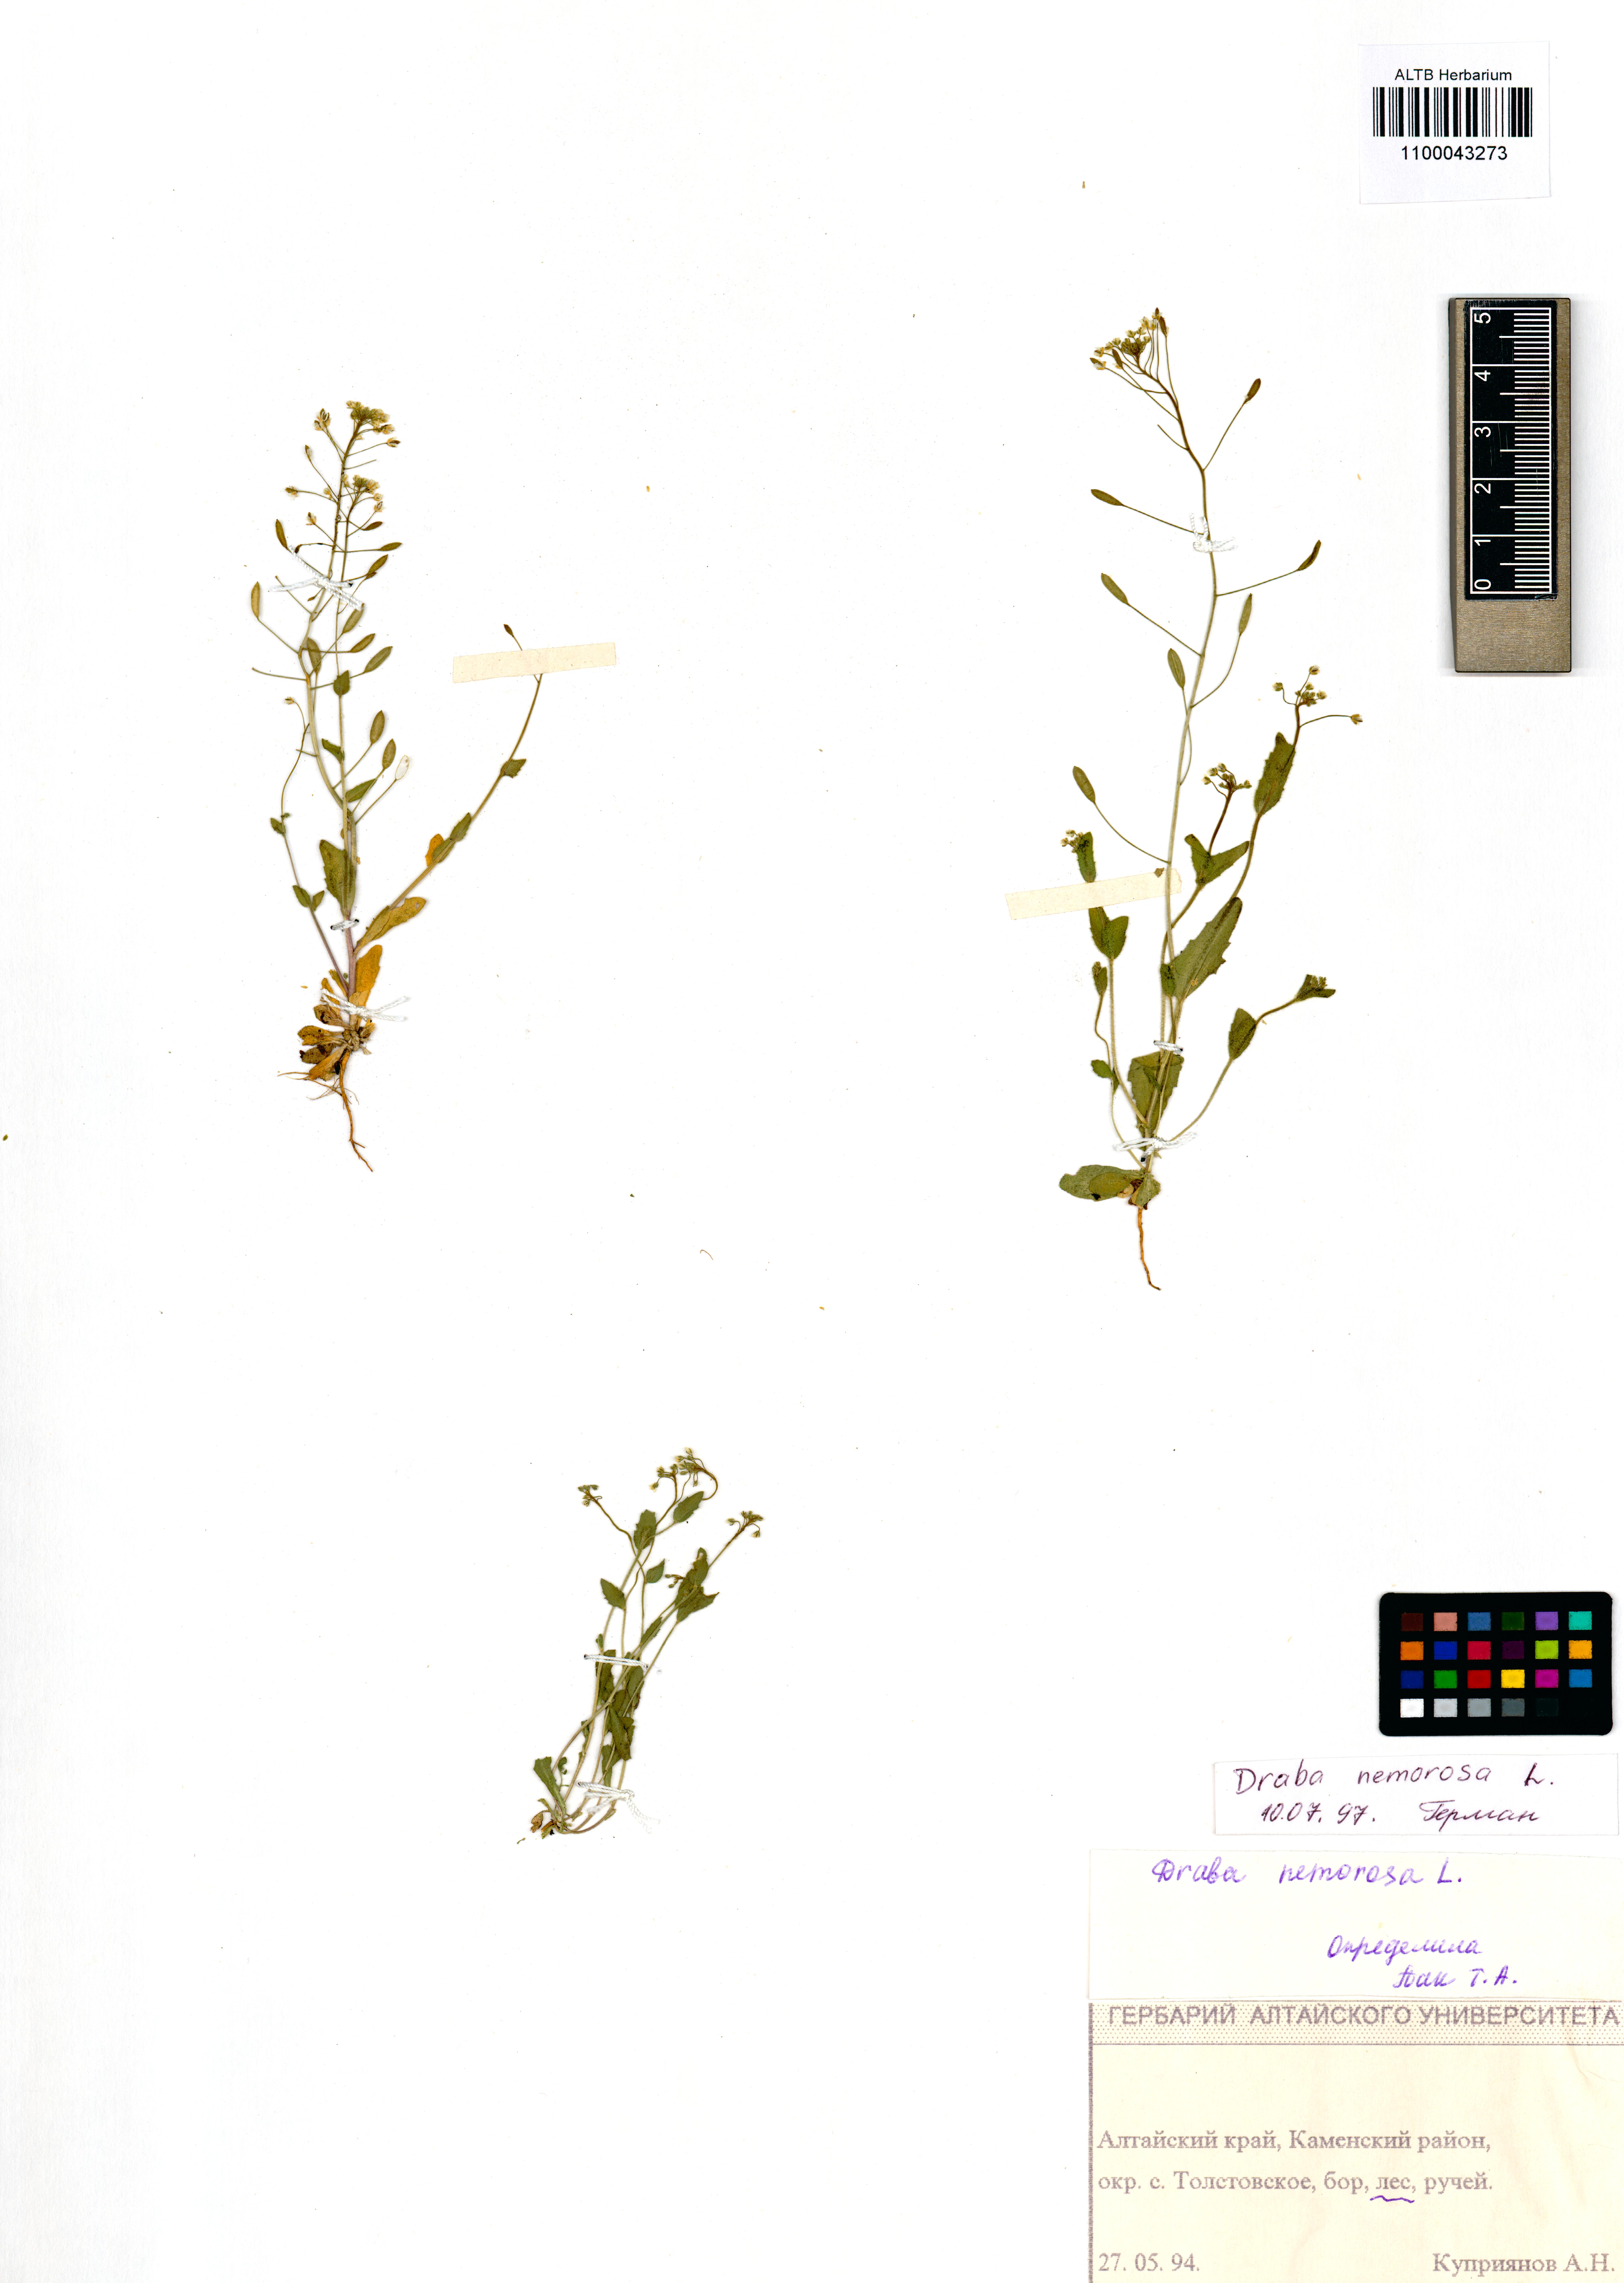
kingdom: Plantae
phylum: Tracheophyta
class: Magnoliopsida
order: Brassicales
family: Brassicaceae
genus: Draba
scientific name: Draba nemorosa
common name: Wood whitlow-grass
